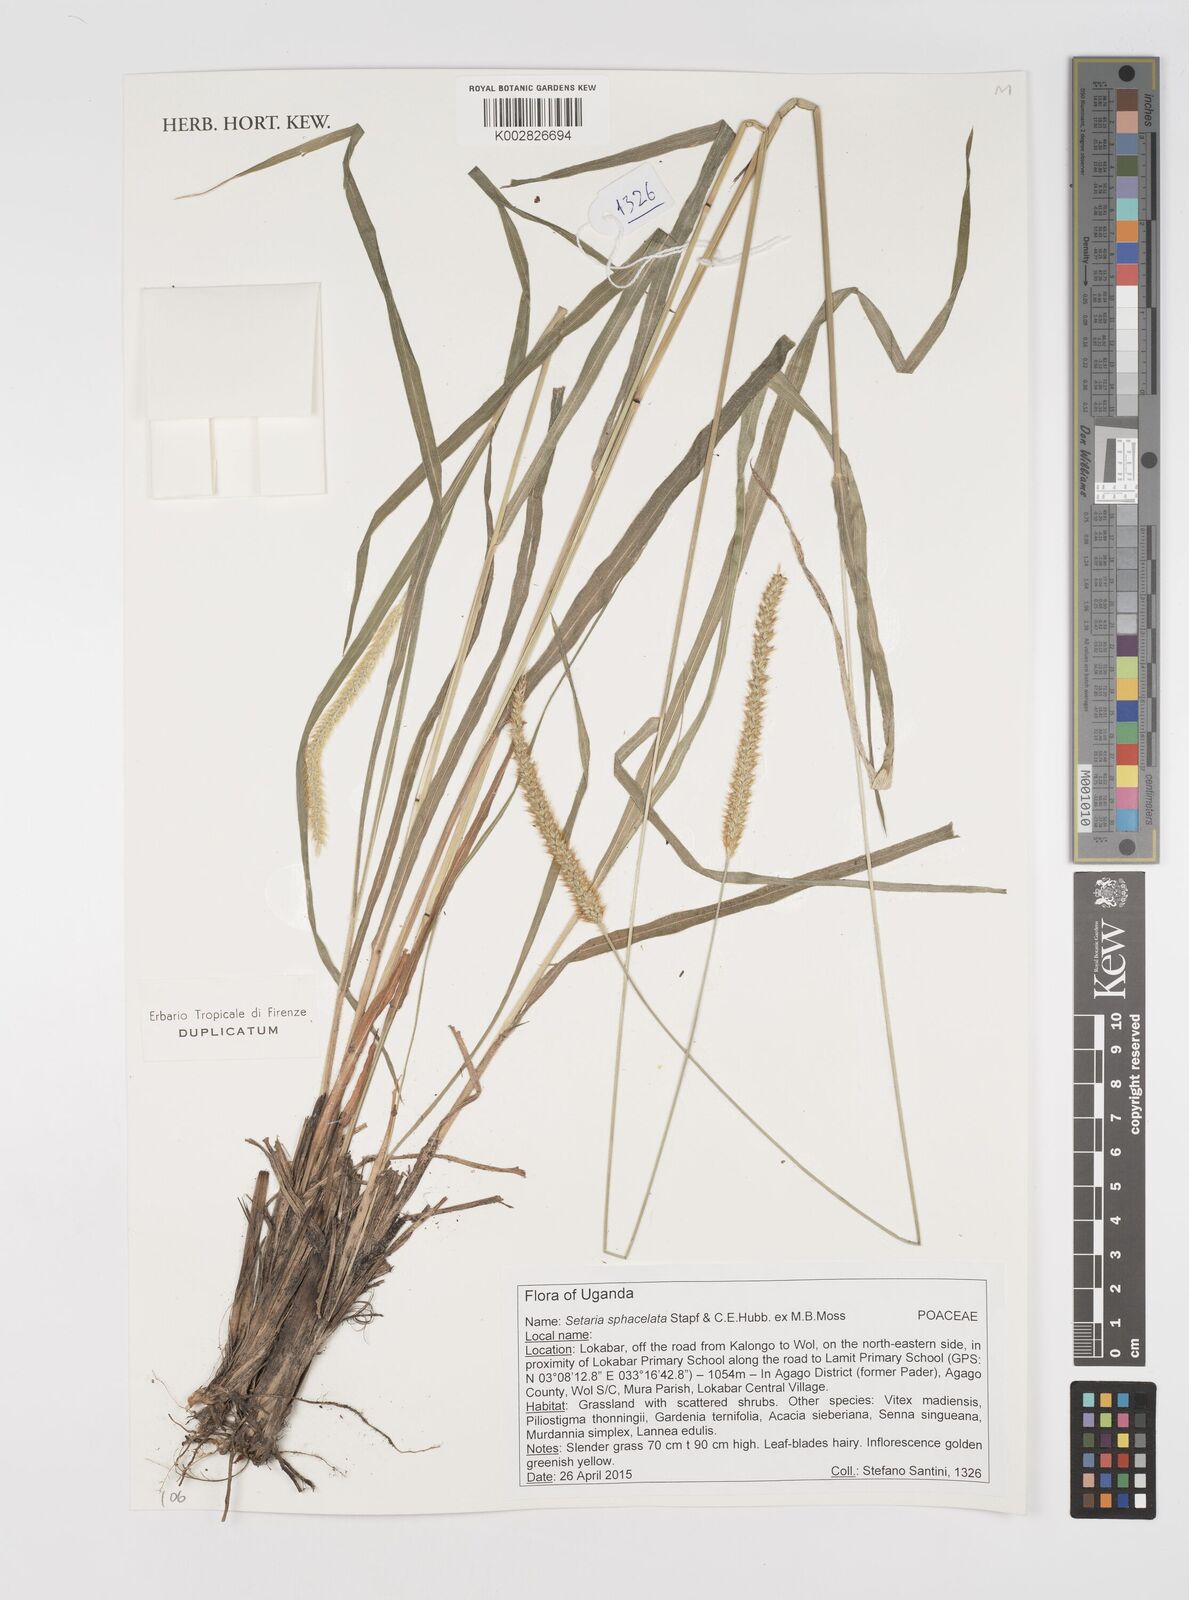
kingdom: Plantae
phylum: Tracheophyta
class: Liliopsida
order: Poales
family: Poaceae
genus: Setaria
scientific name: Setaria sphacelata
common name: African bristlegrass
